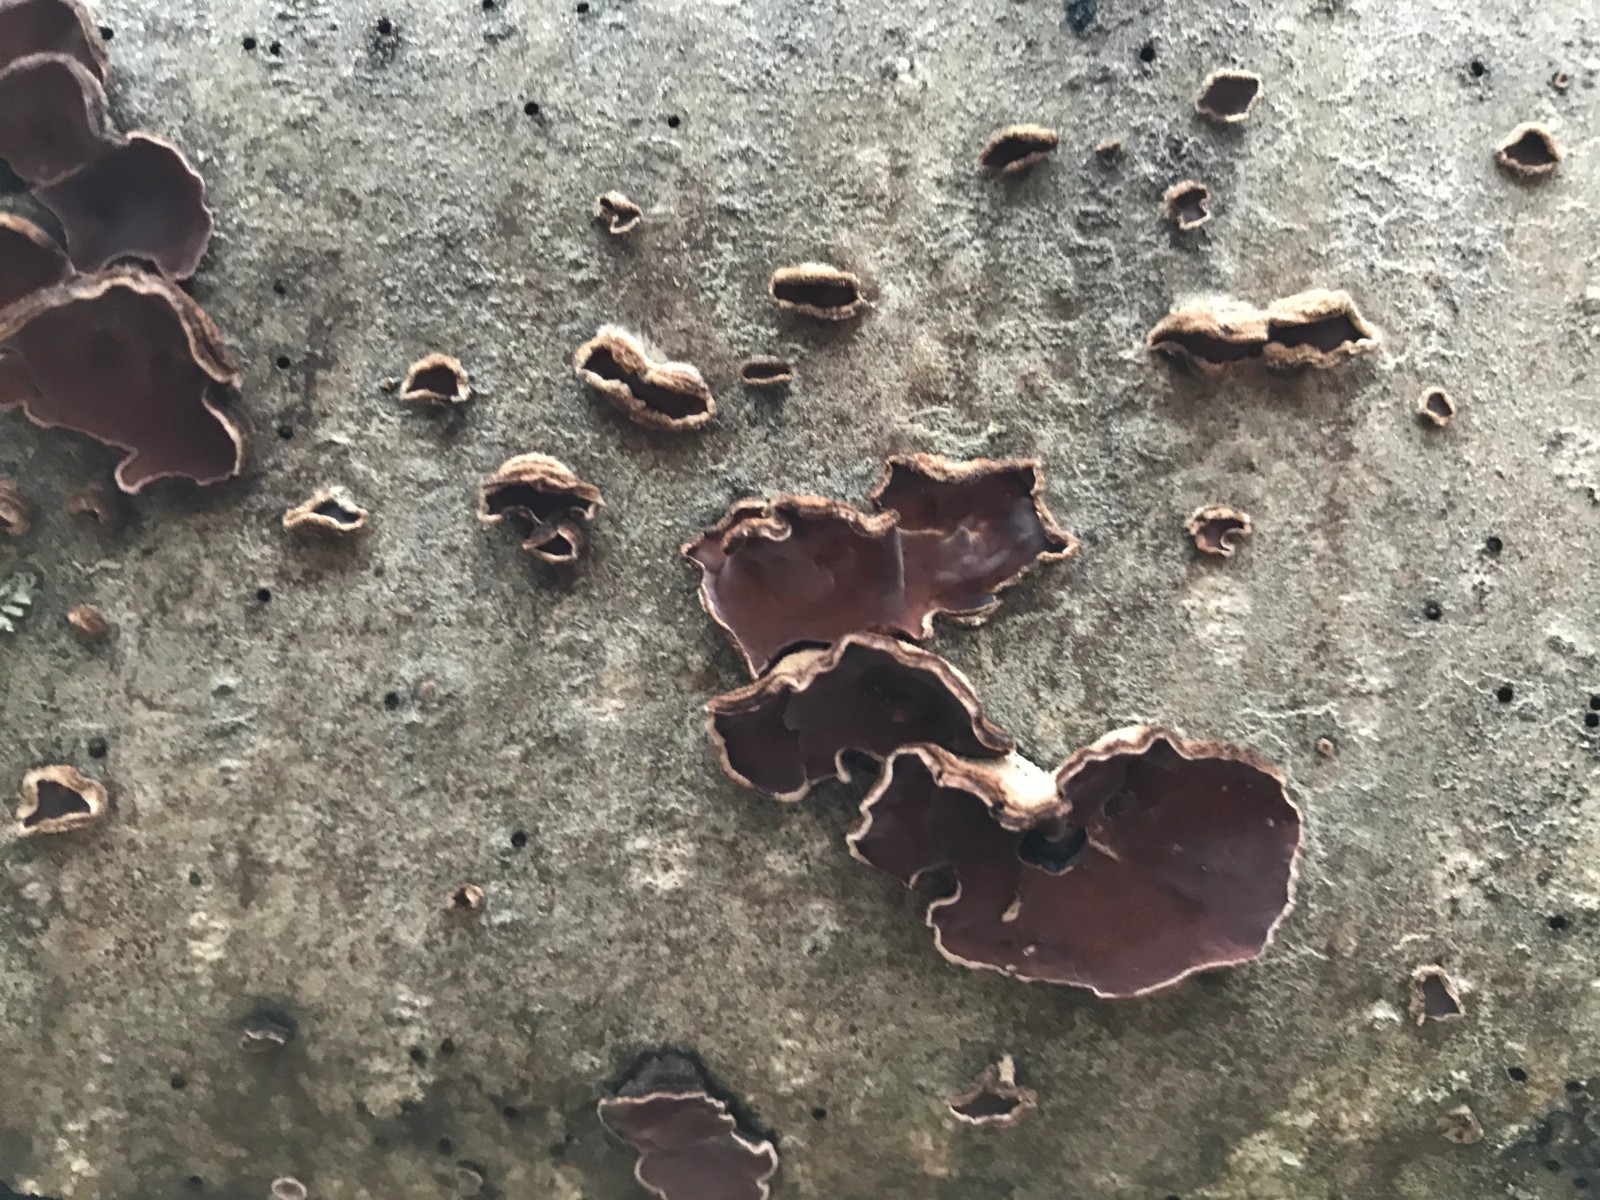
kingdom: Fungi
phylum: Basidiomycota
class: Agaricomycetes
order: Agaricales
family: Cyphellaceae
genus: Chondrostereum
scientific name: Chondrostereum purpureum
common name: purpurlædersvamp
